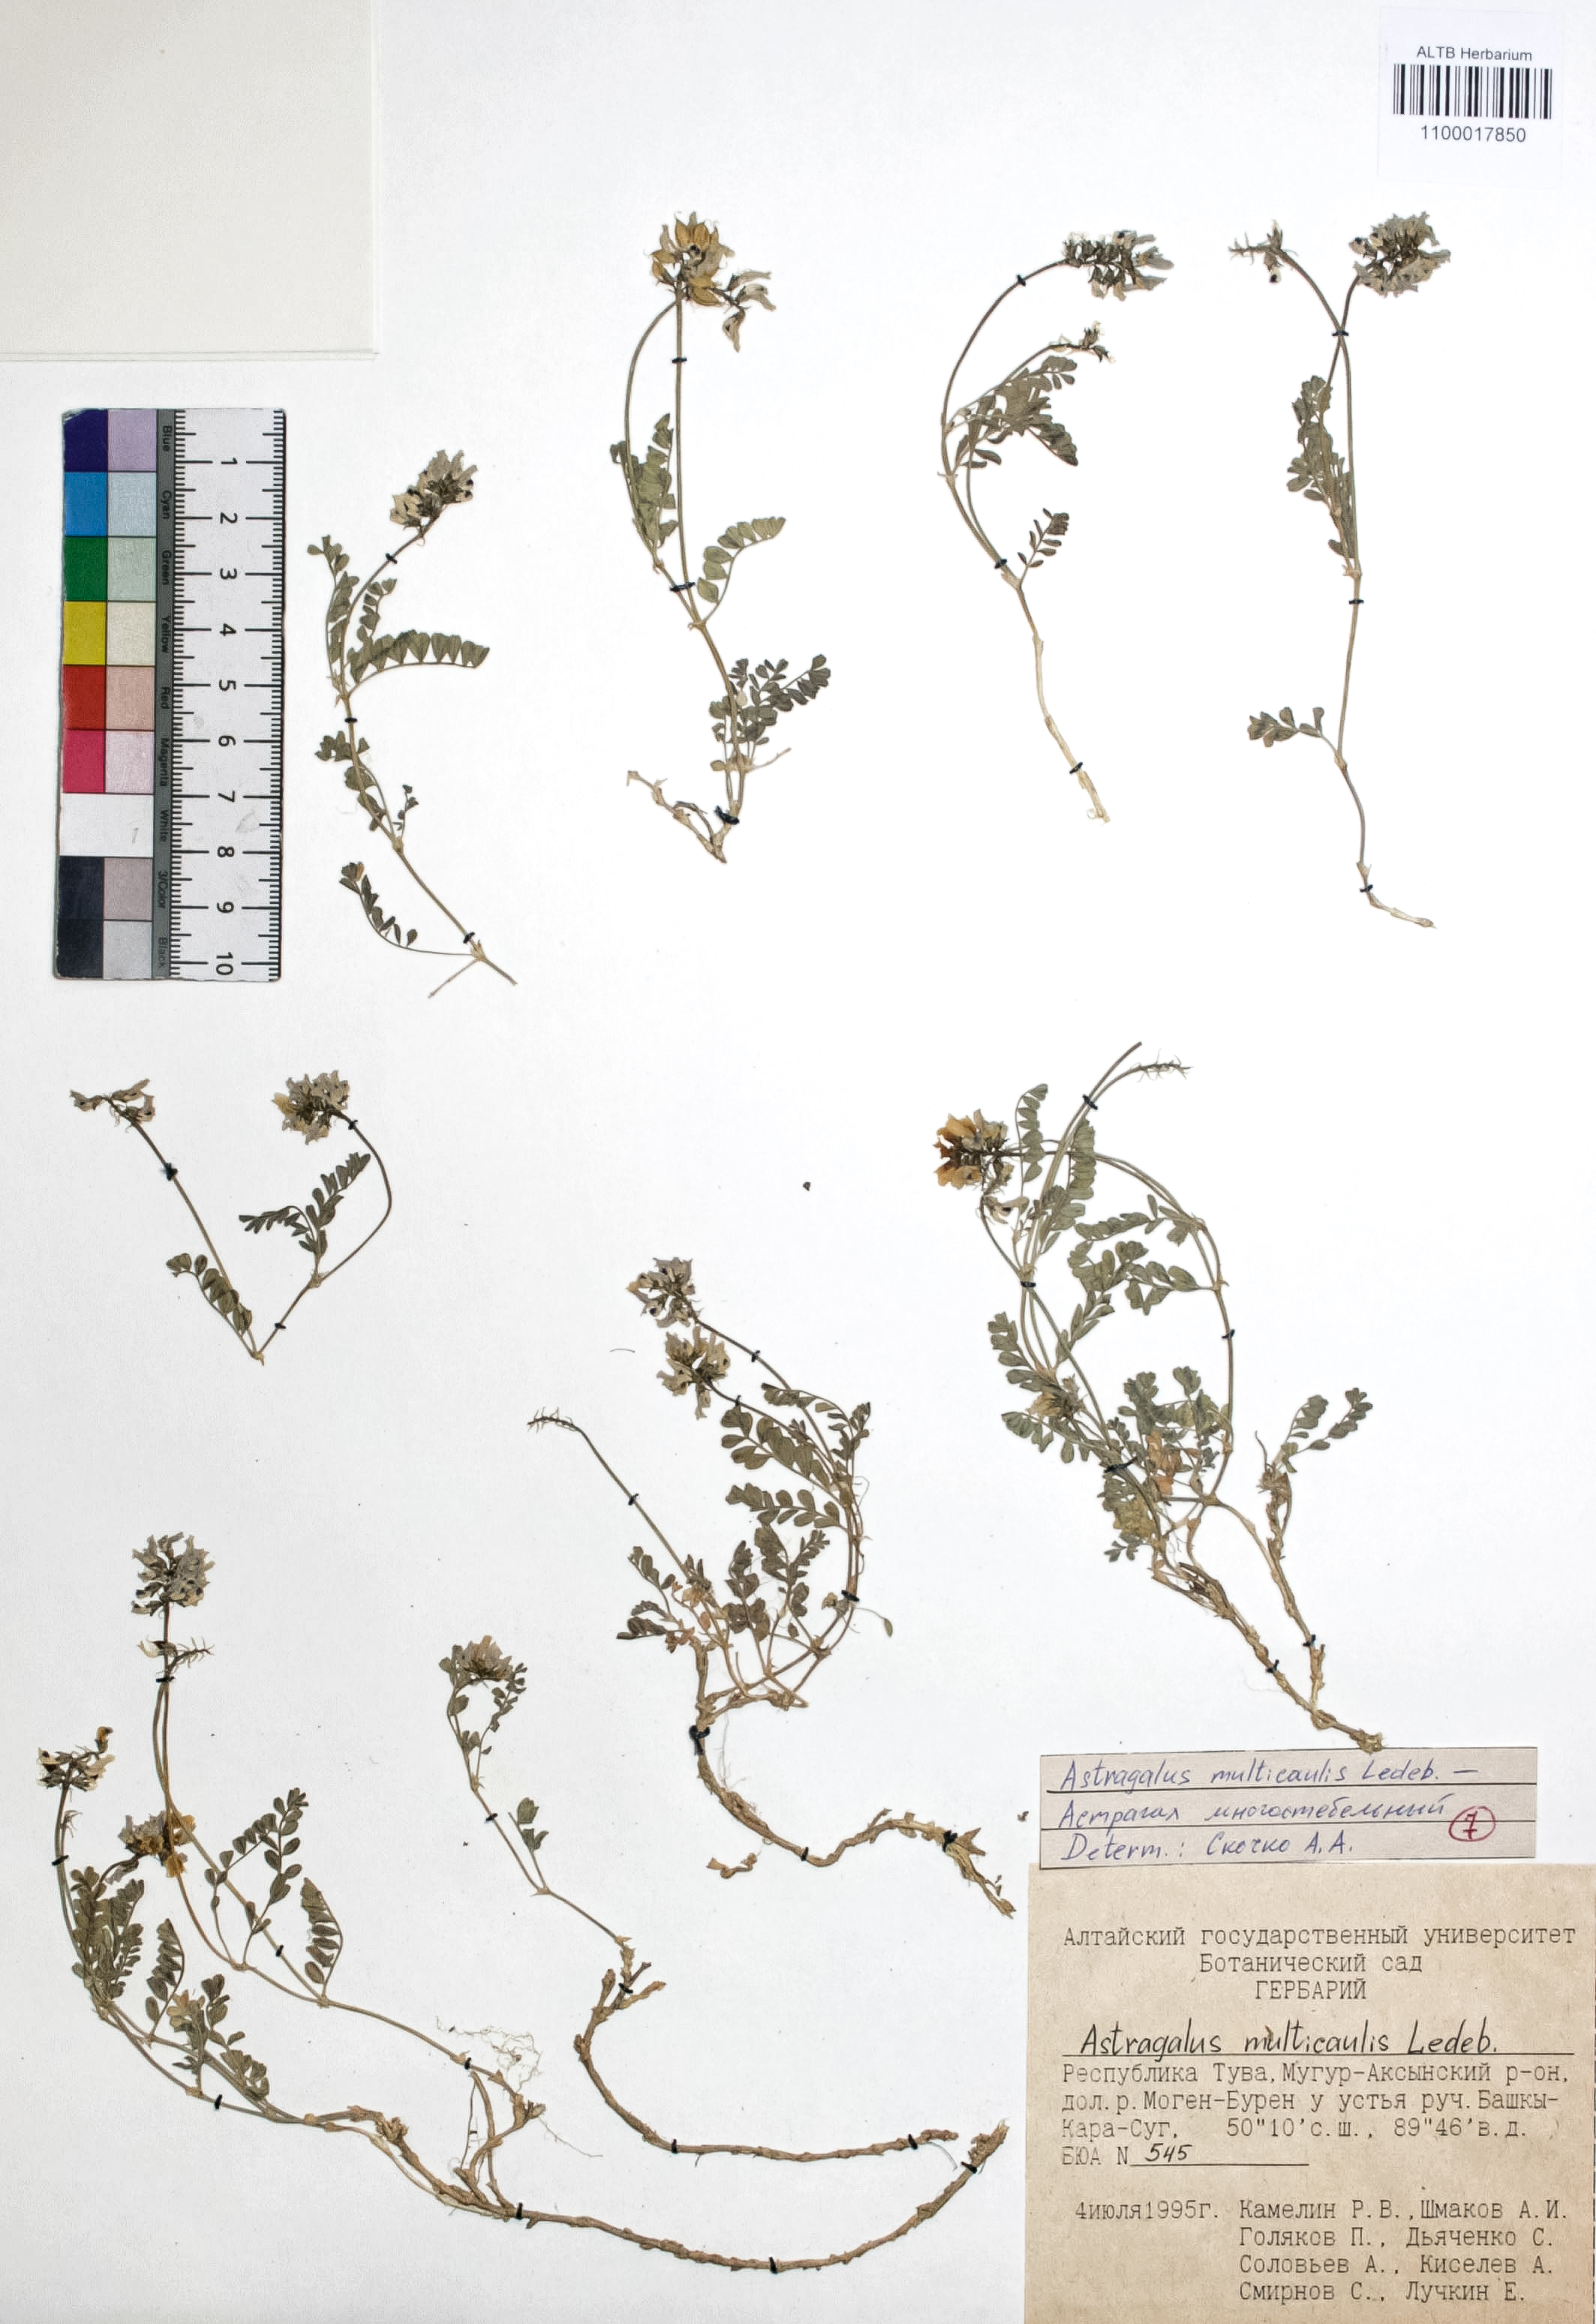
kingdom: Plantae
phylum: Tracheophyta
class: Magnoliopsida
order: Fabales
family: Fabaceae
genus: Astragalus
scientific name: Astragalus leptostachys
